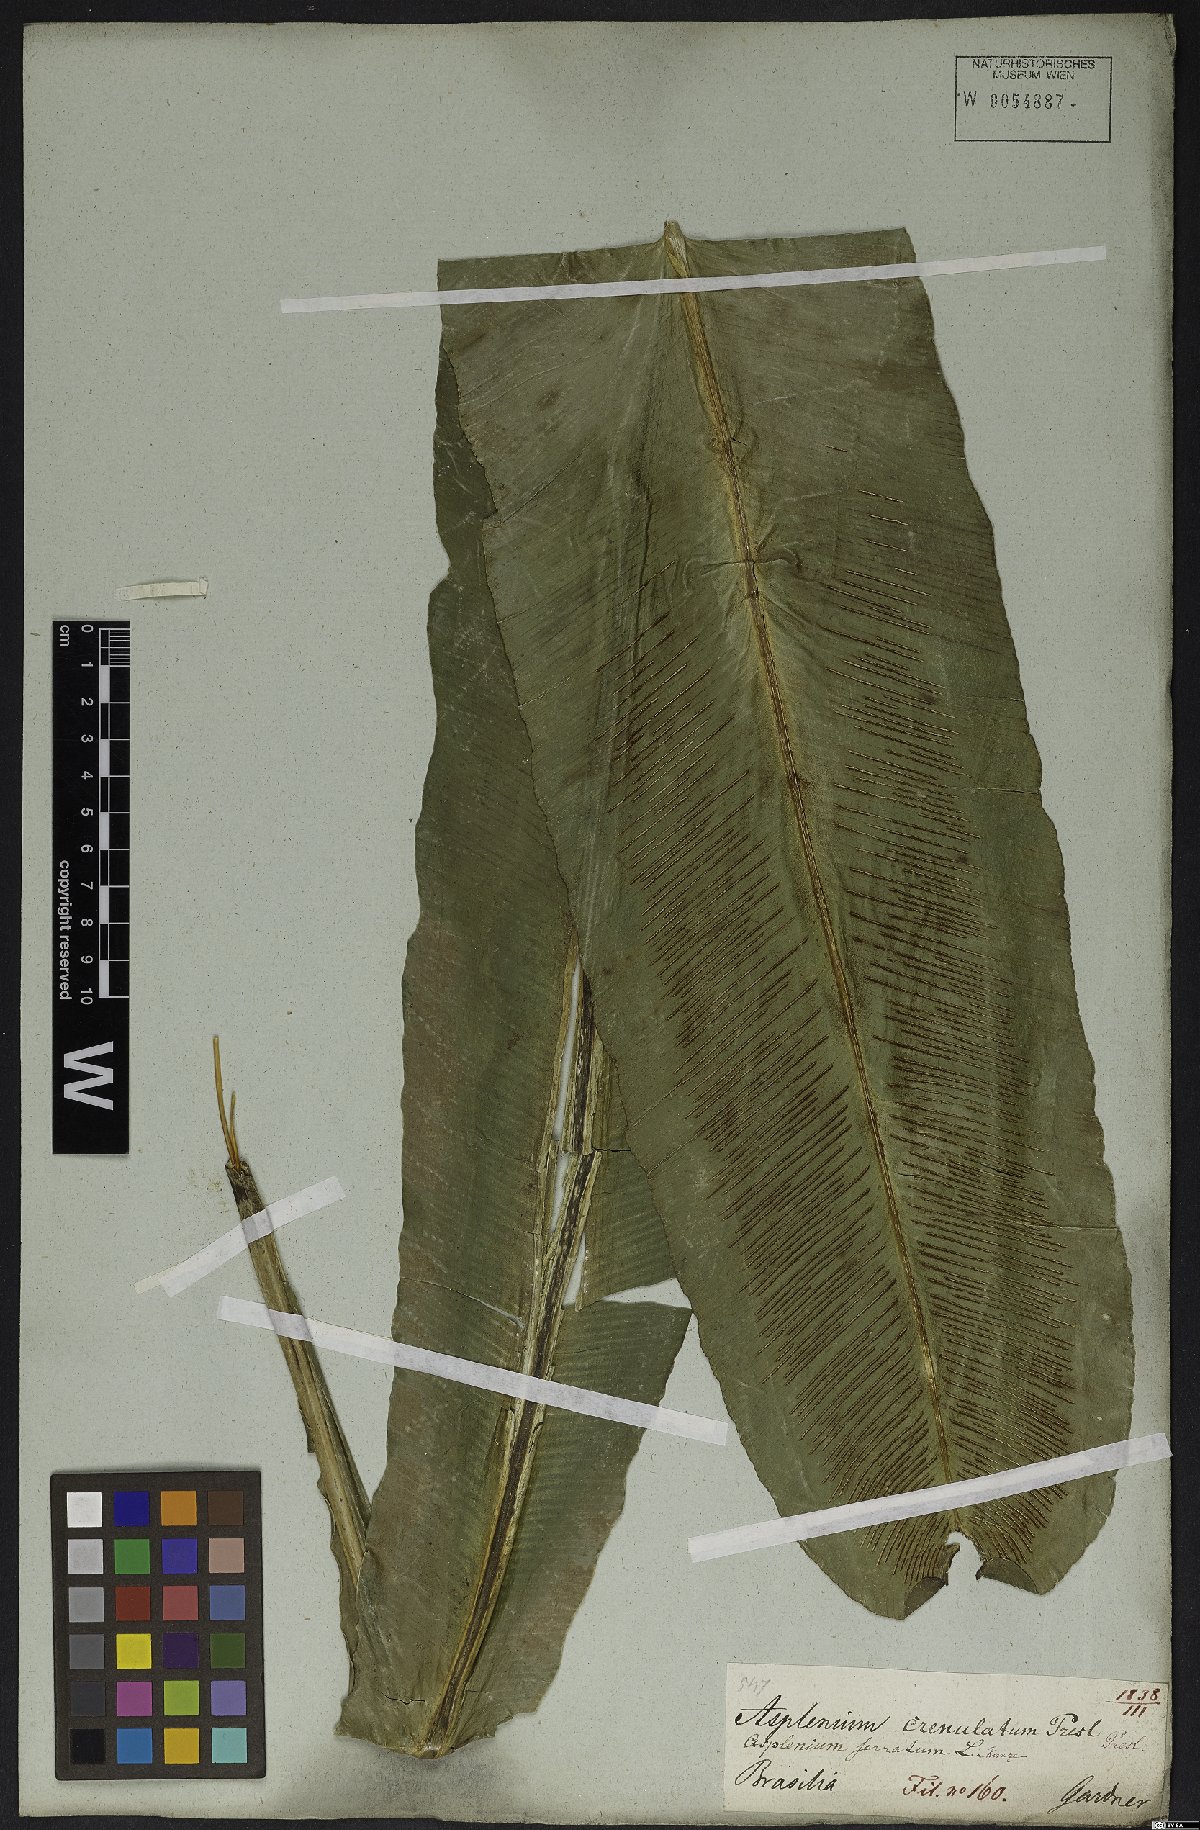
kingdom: Plantae
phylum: Tracheophyta
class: Polypodiopsida
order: Polypodiales
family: Aspleniaceae
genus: Asplenium
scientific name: Asplenium serratum
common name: Wild birdnest fern
